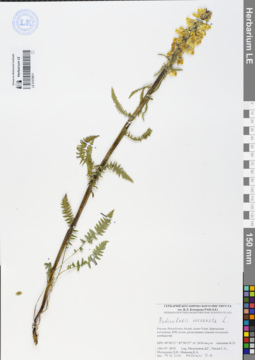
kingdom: Plantae
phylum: Tracheophyta
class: Magnoliopsida
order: Lamiales
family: Orobanchaceae
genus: Pedicularis
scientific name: Pedicularis incarnata
